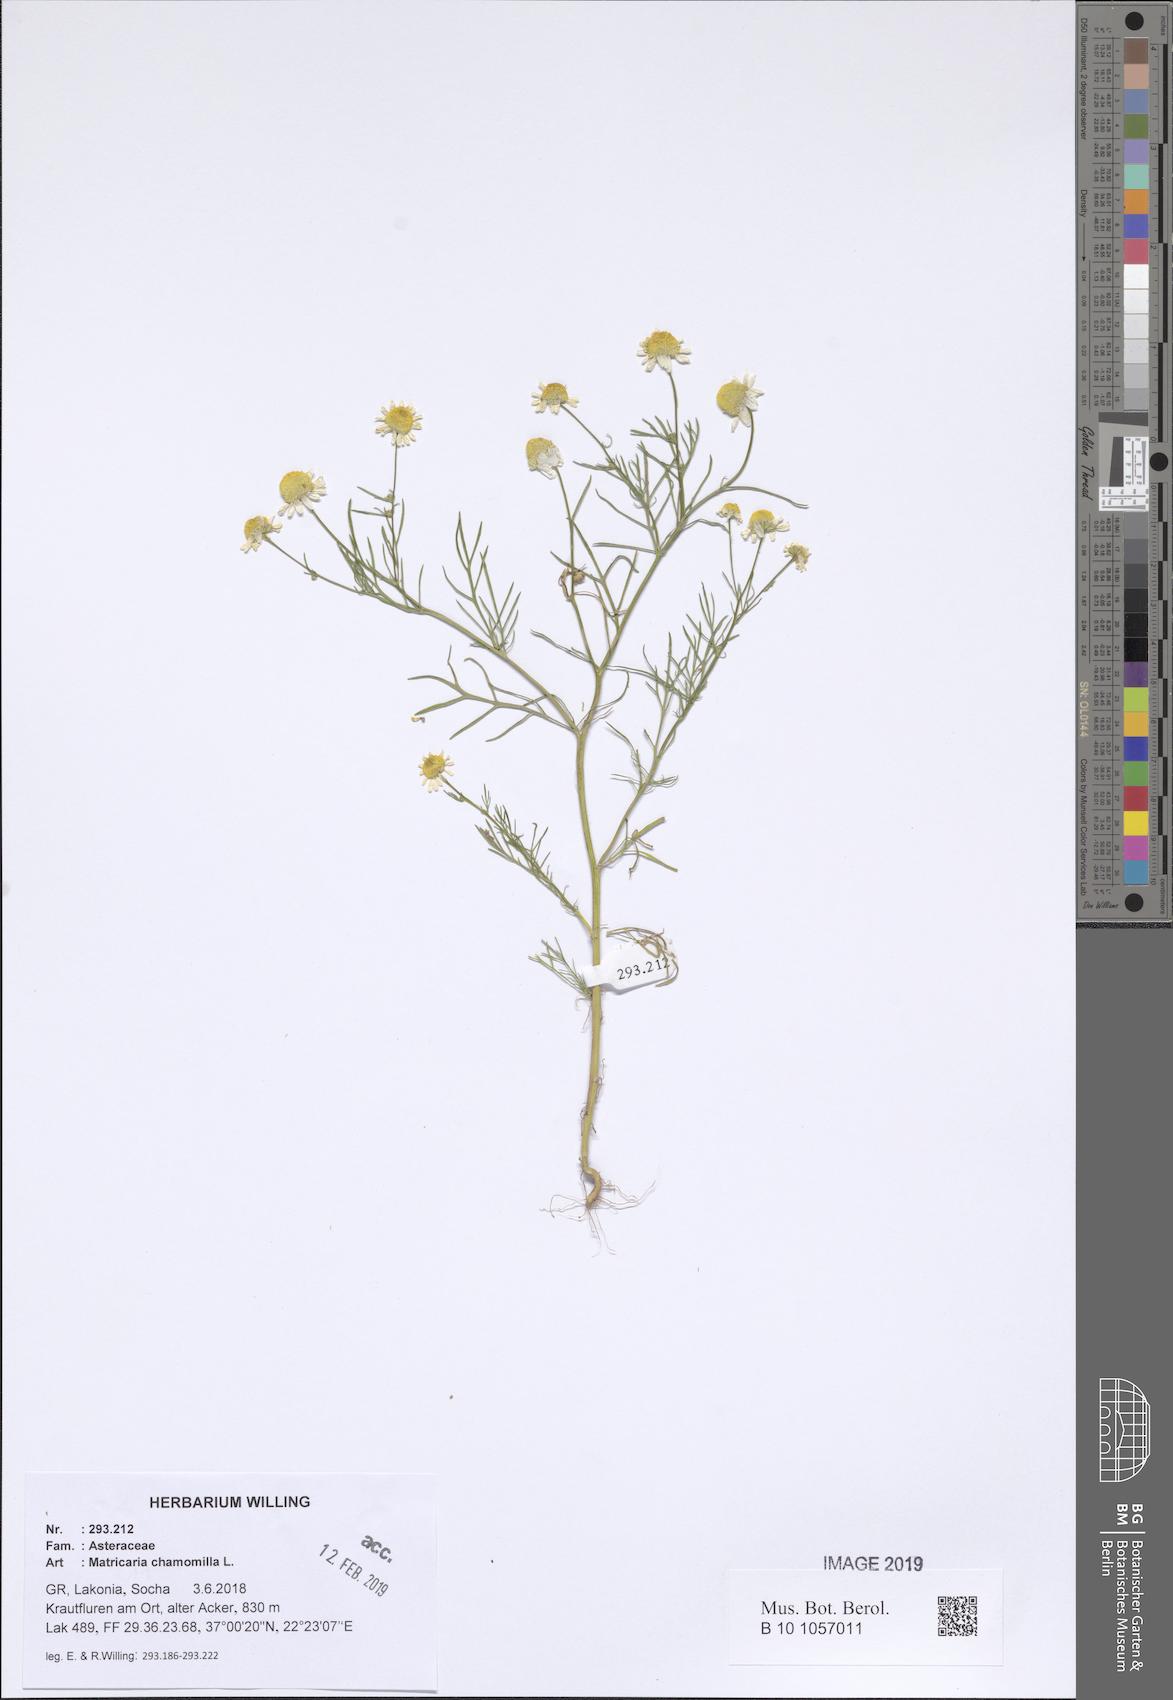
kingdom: Plantae
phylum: Tracheophyta
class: Magnoliopsida
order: Asterales
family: Asteraceae
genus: Matricaria
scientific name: Matricaria chamomilla
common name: Scented mayweed
